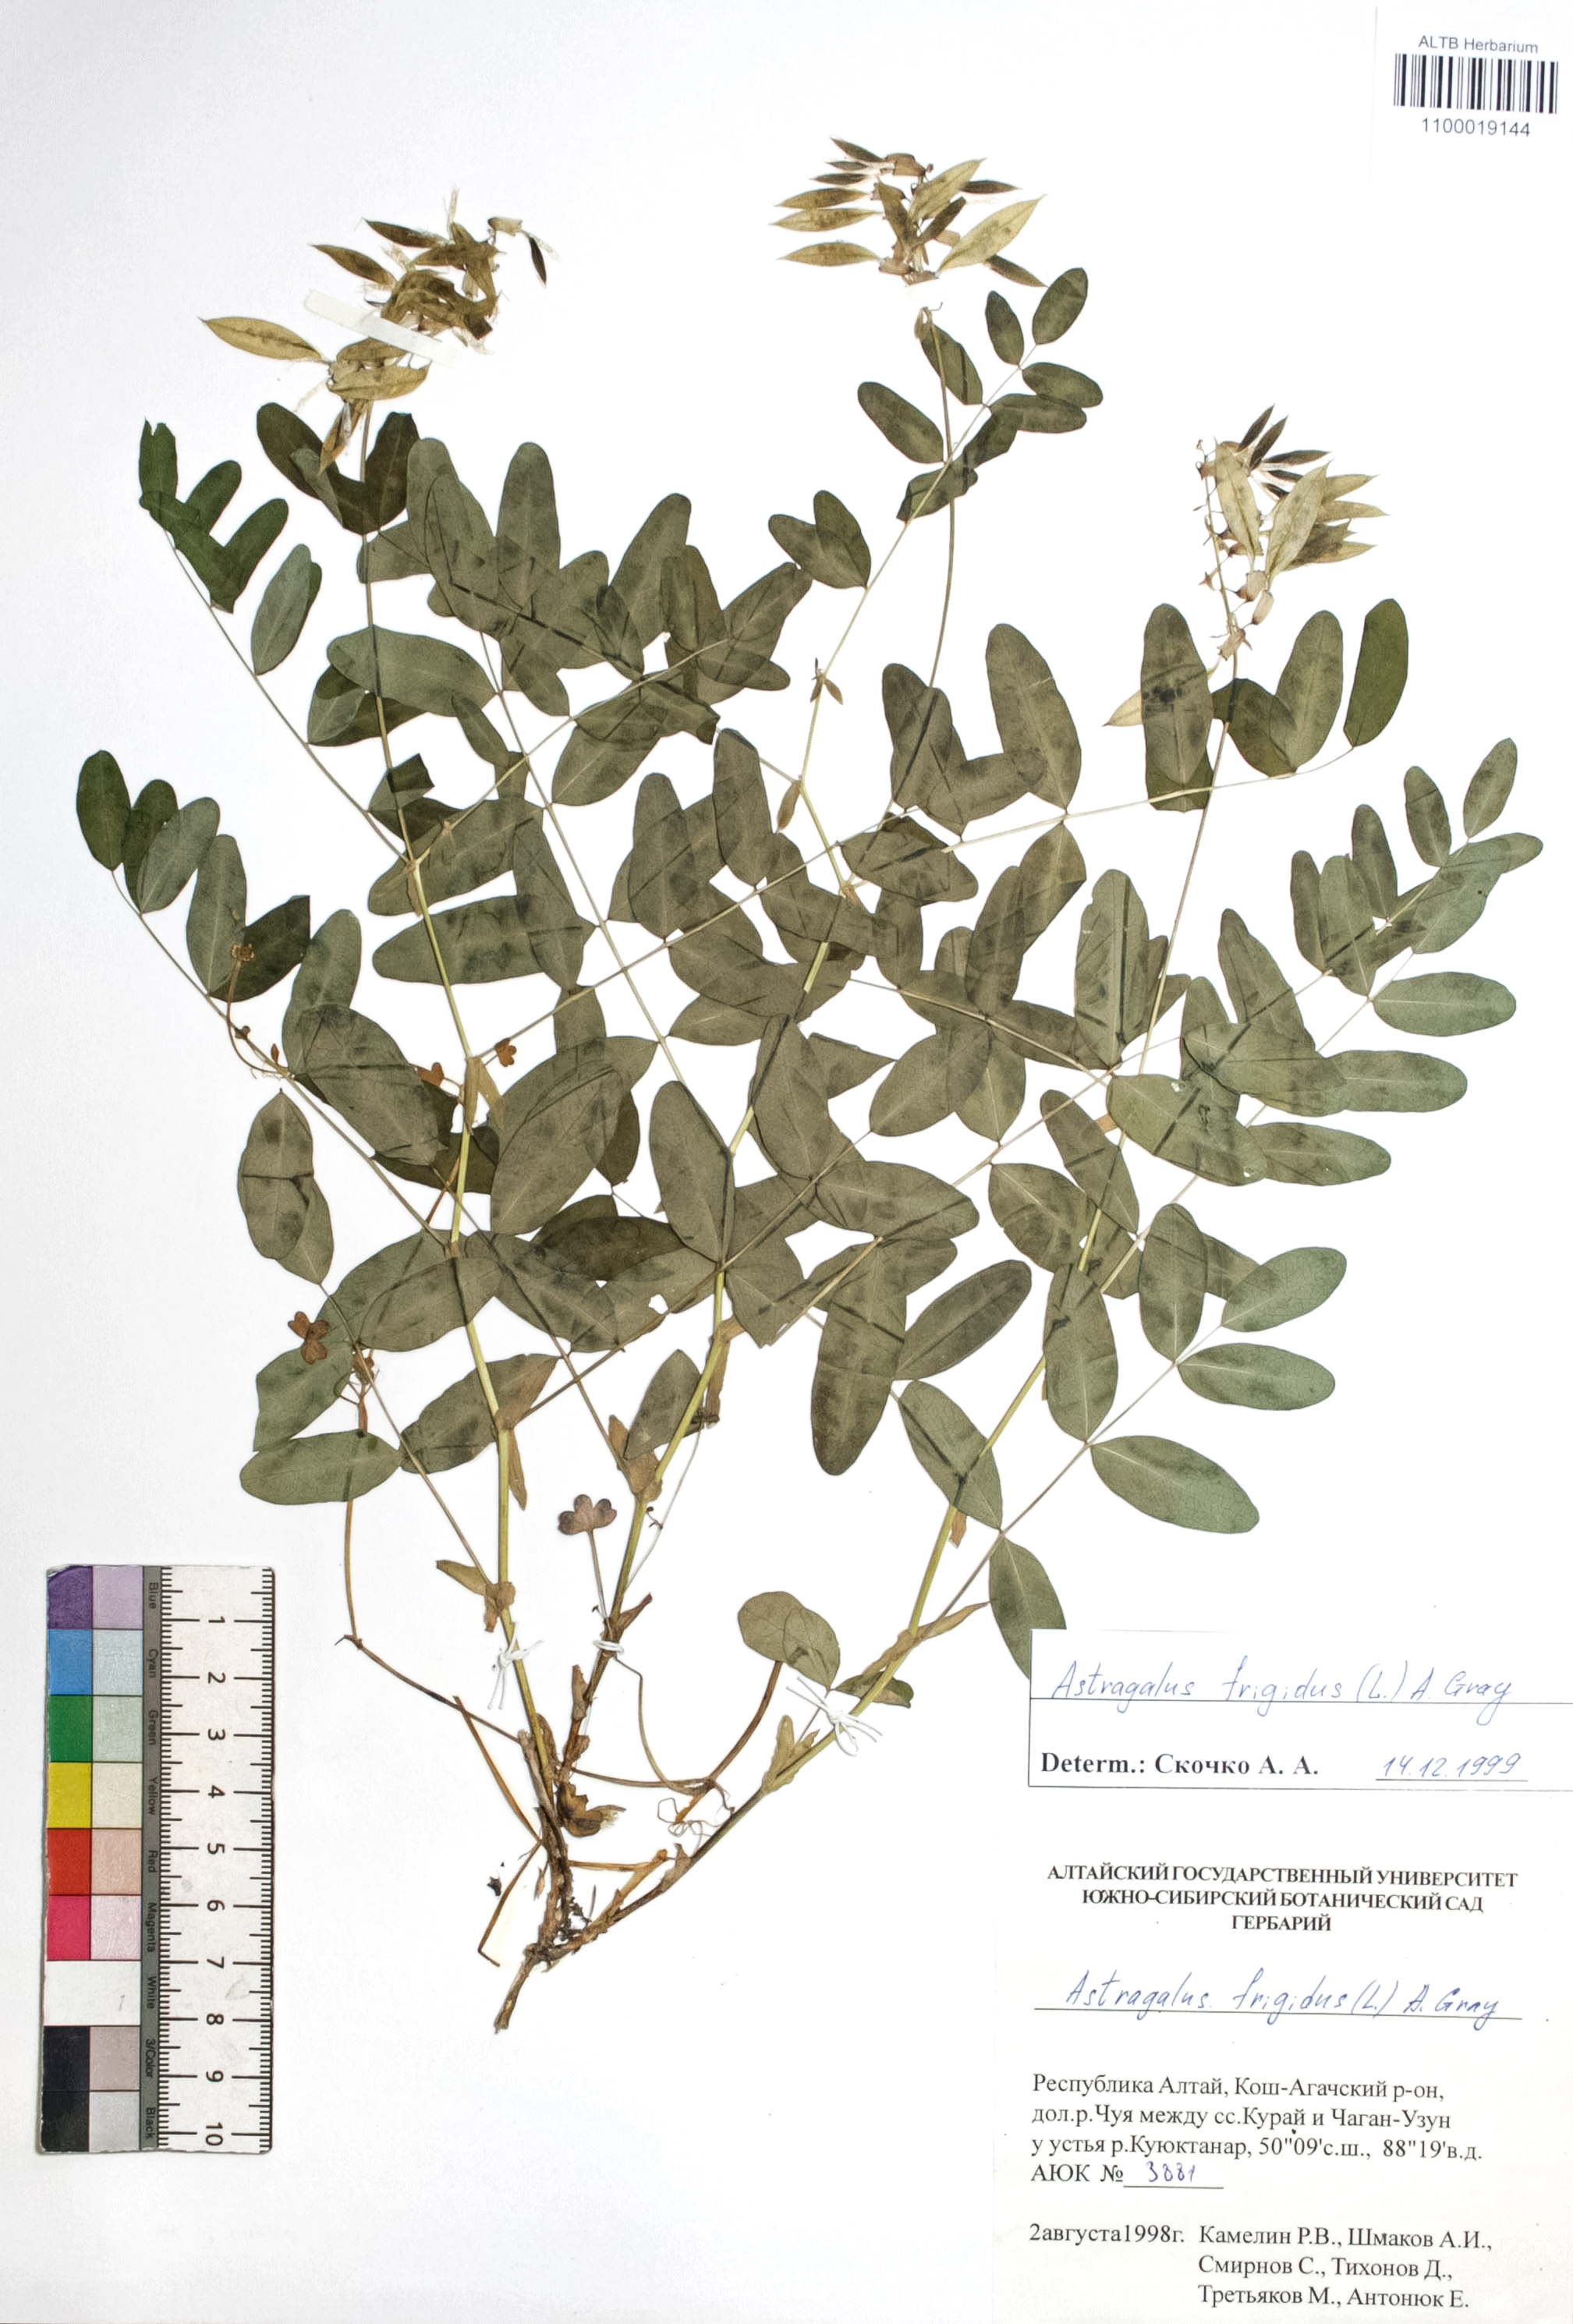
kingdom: Plantae
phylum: Tracheophyta
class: Magnoliopsida
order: Fabales
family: Fabaceae
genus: Astragalus
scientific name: Astragalus frigidus
